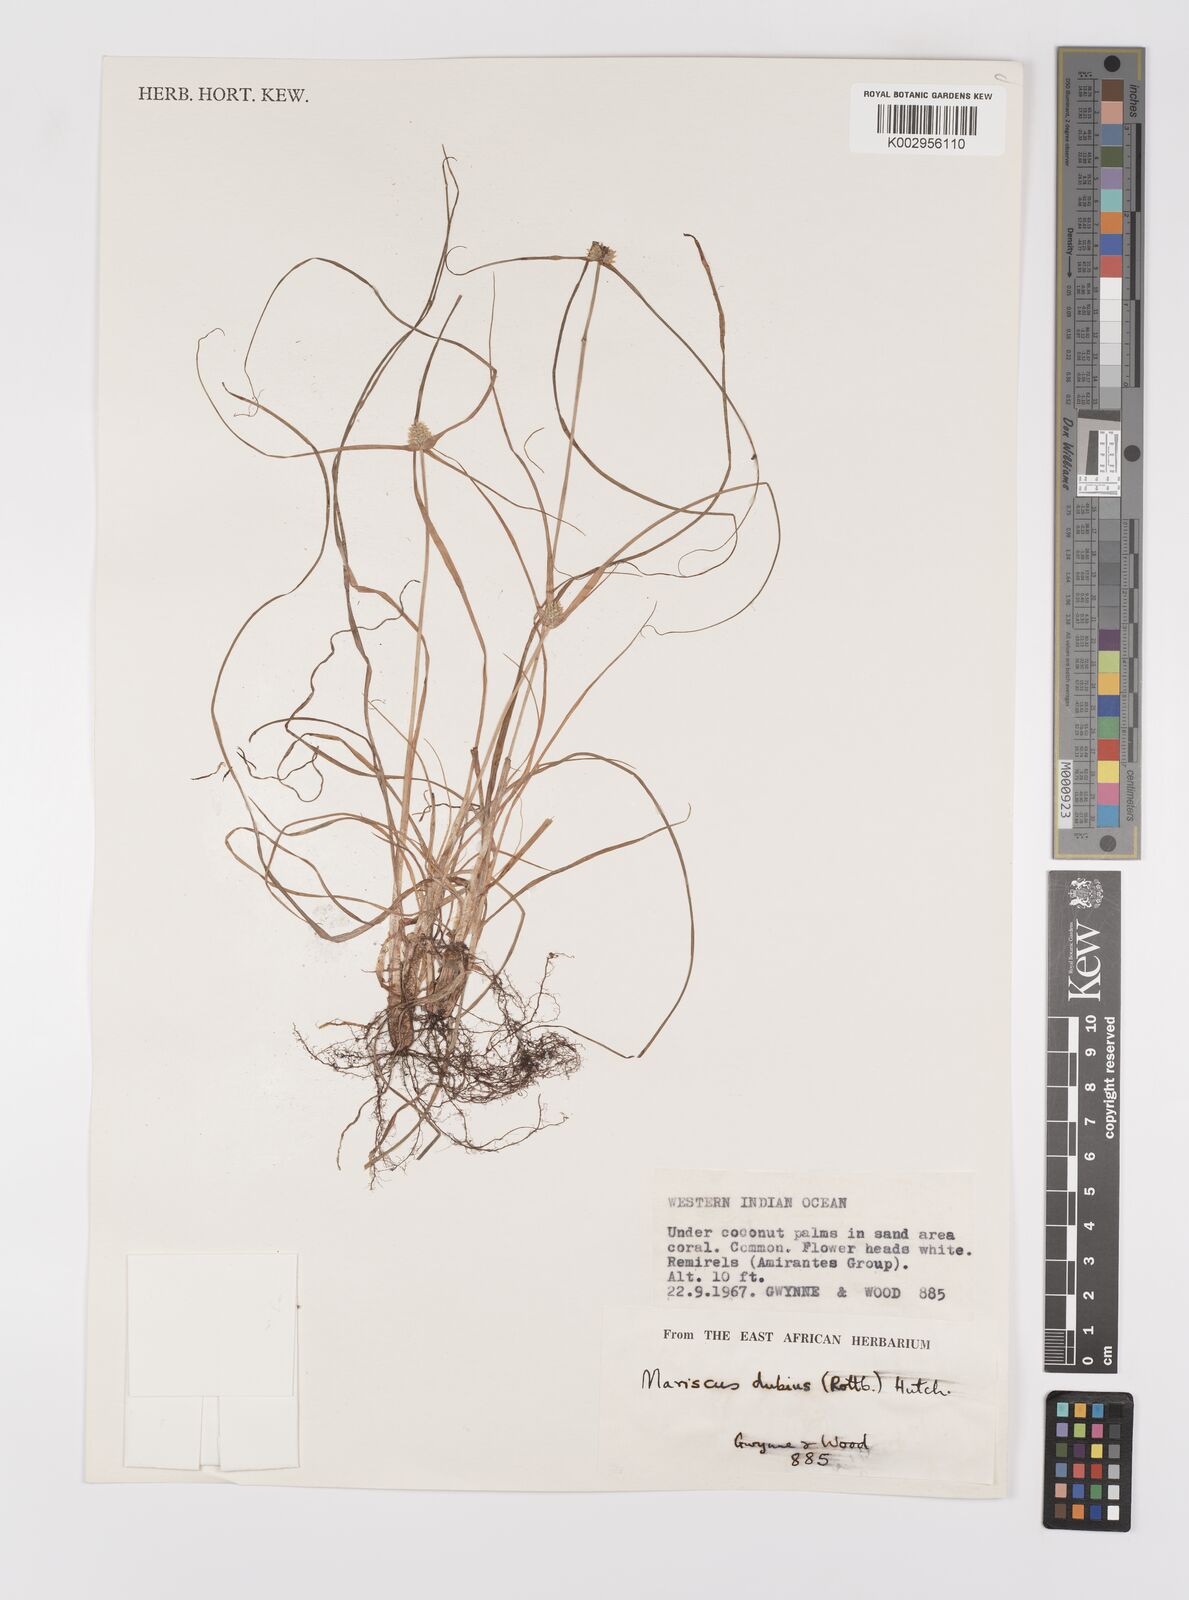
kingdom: Plantae
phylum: Tracheophyta
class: Liliopsida
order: Poales
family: Cyperaceae
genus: Cyperus
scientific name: Cyperus dubius
